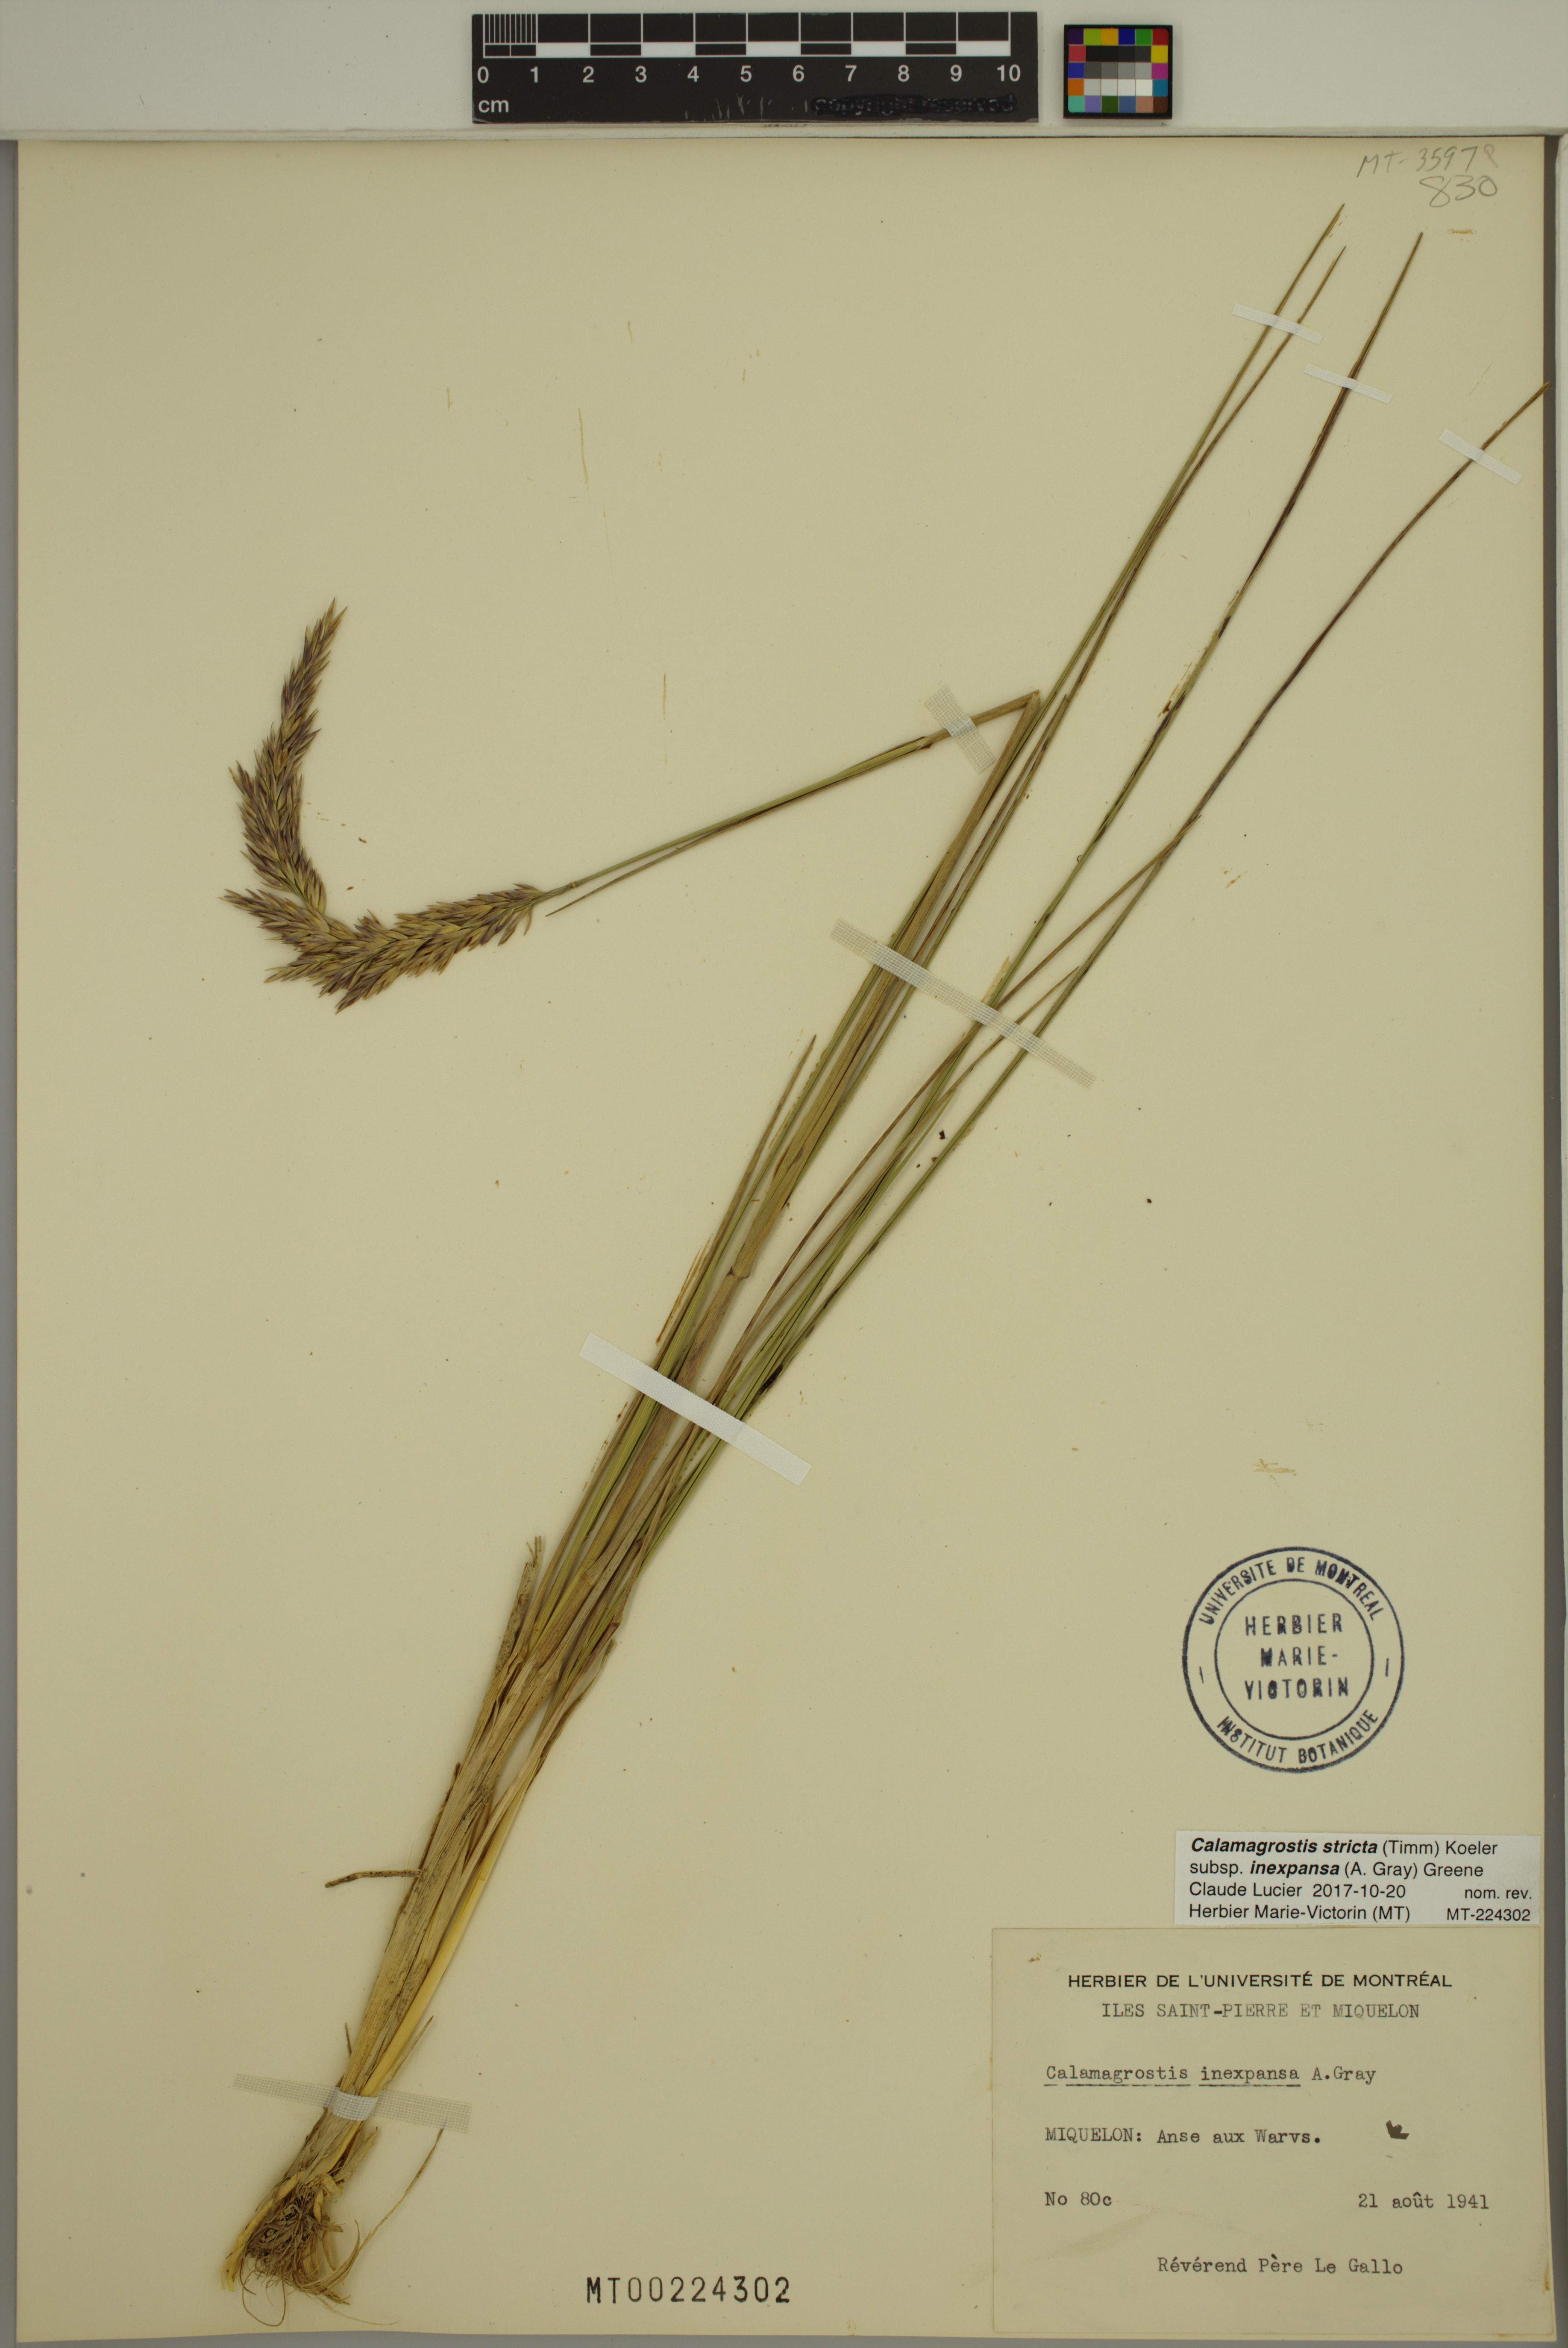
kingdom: Plantae
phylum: Tracheophyta
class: Liliopsida
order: Poales
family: Poaceae
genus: Calamagrostis
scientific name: Calamagrostis inexpansa
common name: Northern reedgrass
